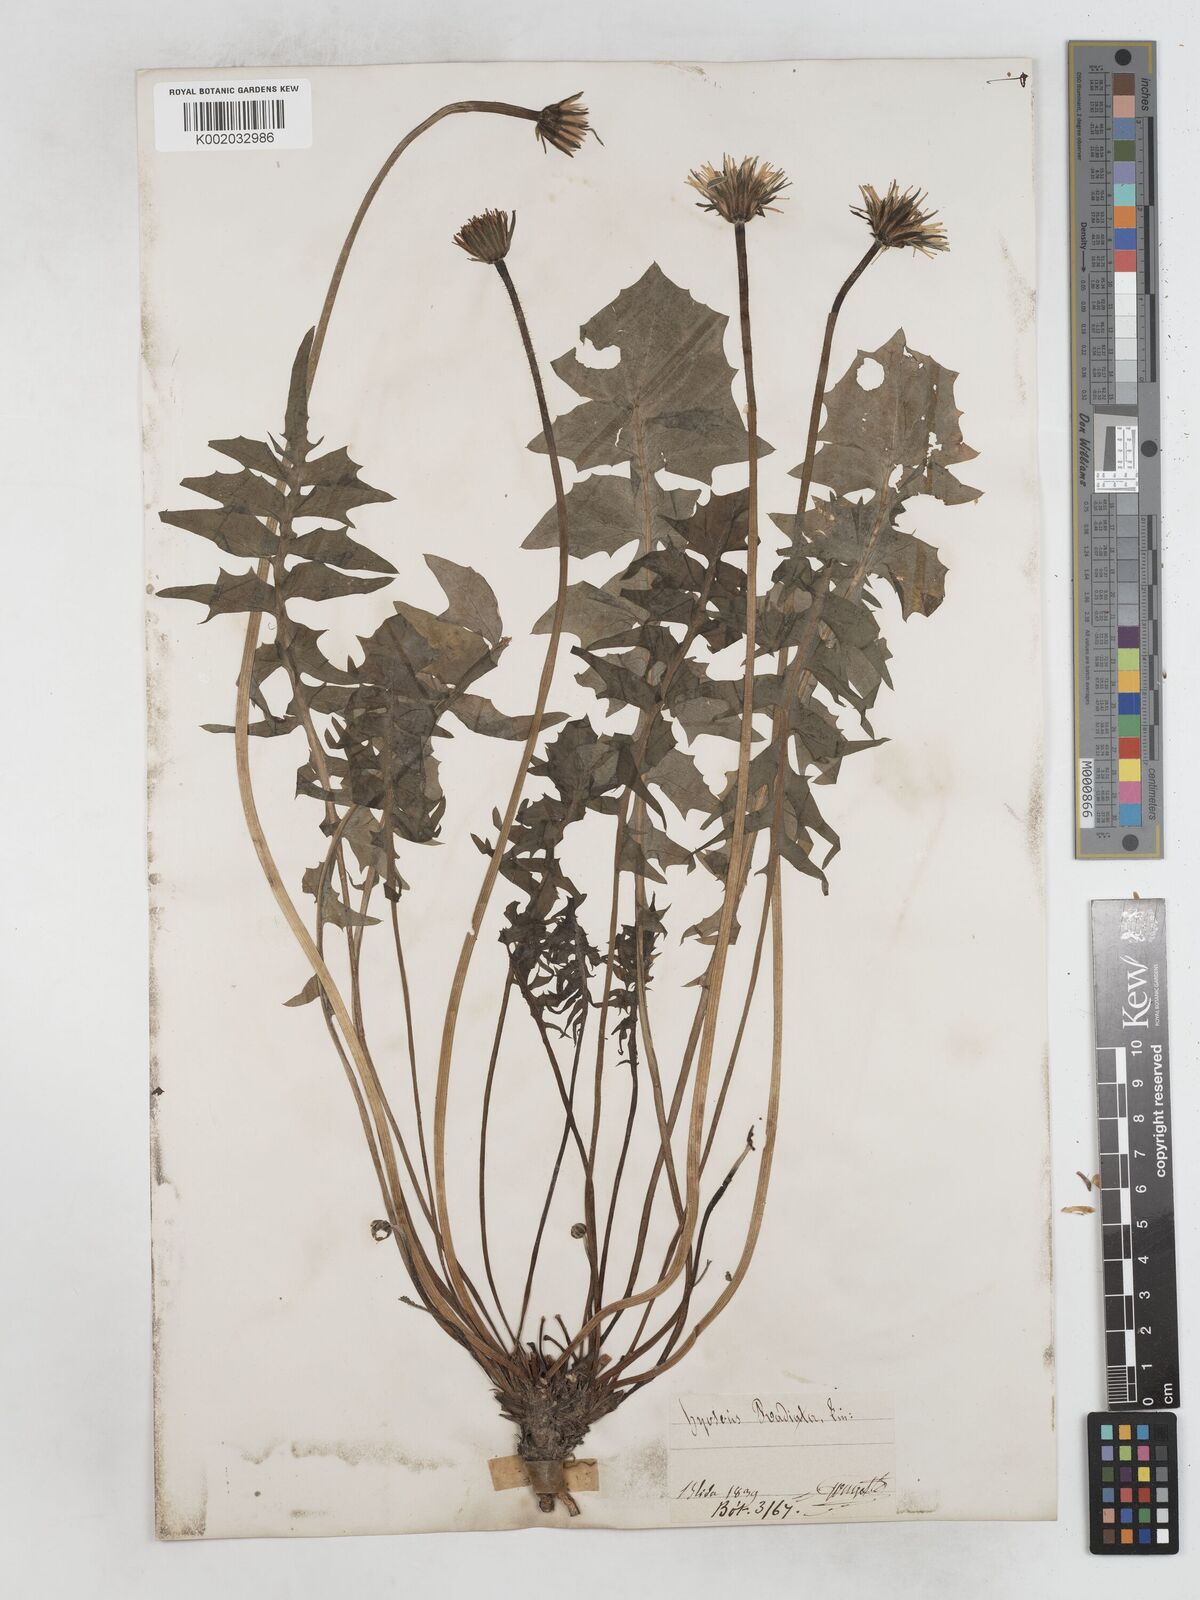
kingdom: Plantae
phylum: Tracheophyta
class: Magnoliopsida
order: Asterales
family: Asteraceae
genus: Hyoseris
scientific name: Hyoseris radiata
